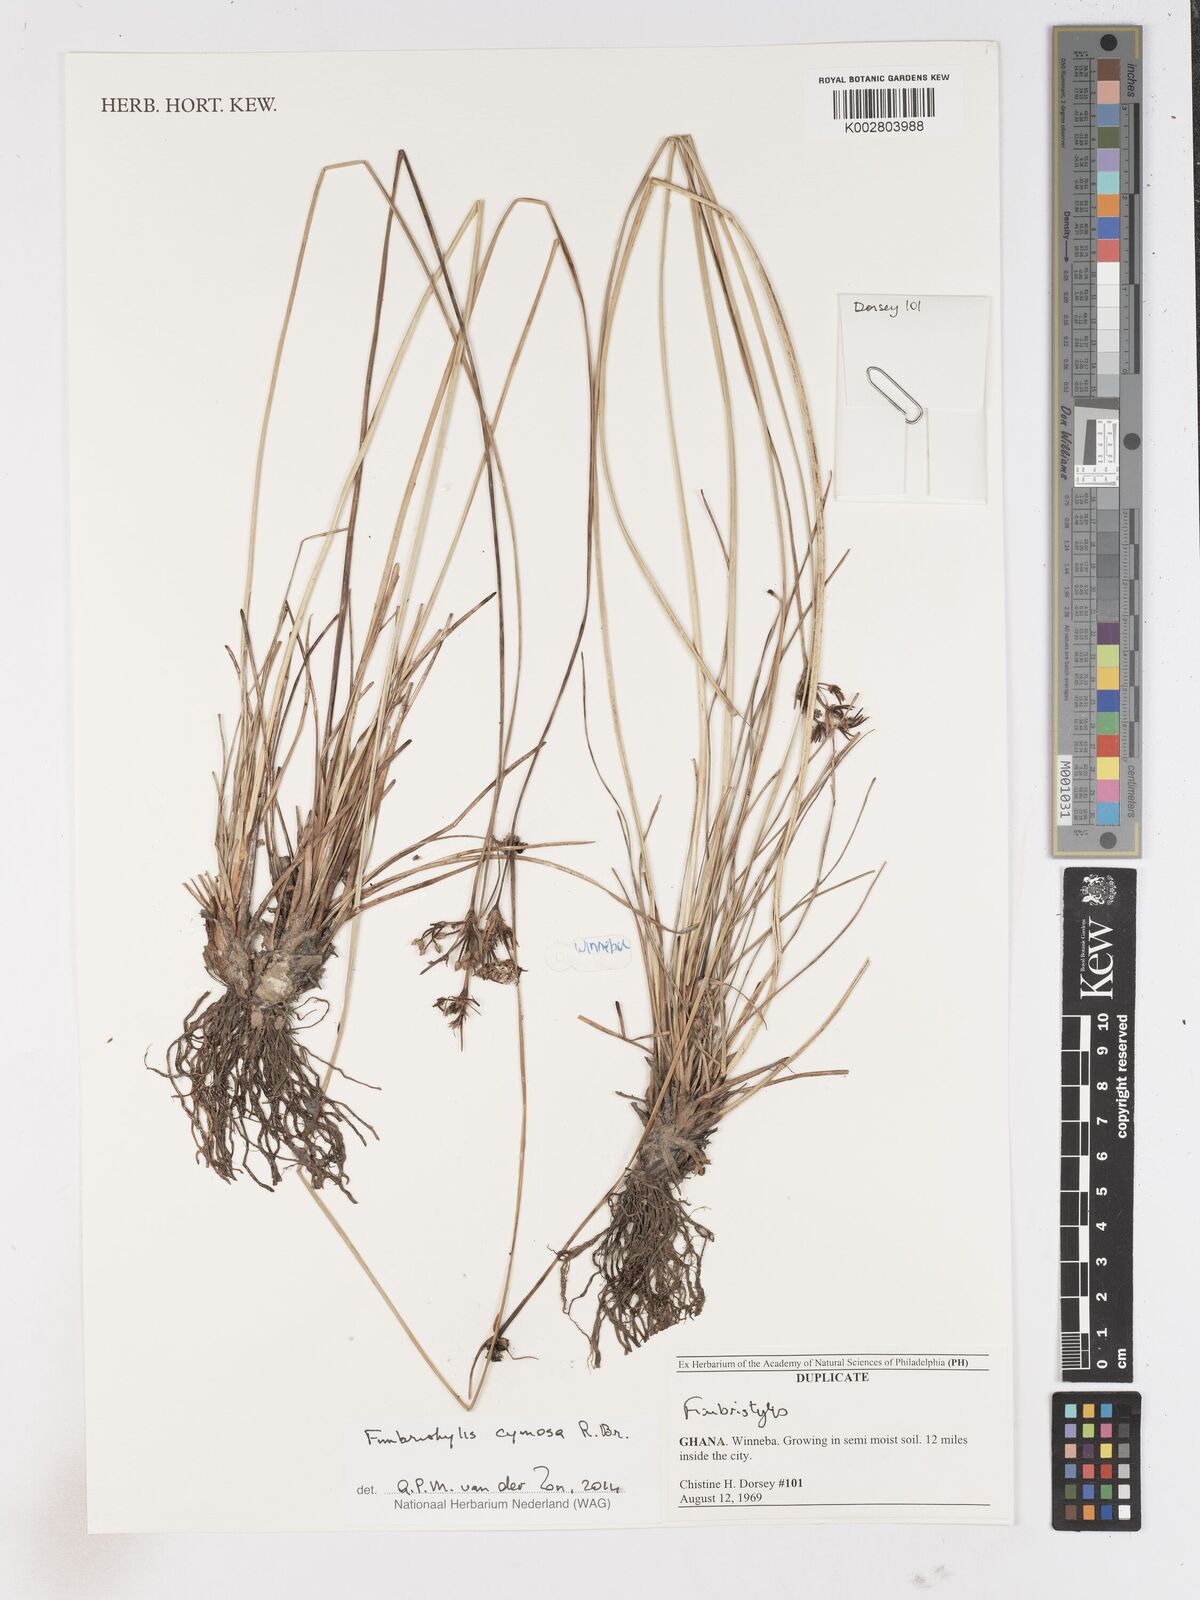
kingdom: Plantae
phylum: Tracheophyta
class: Liliopsida
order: Poales
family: Cyperaceae
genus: Fimbristylis
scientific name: Fimbristylis cymosa
